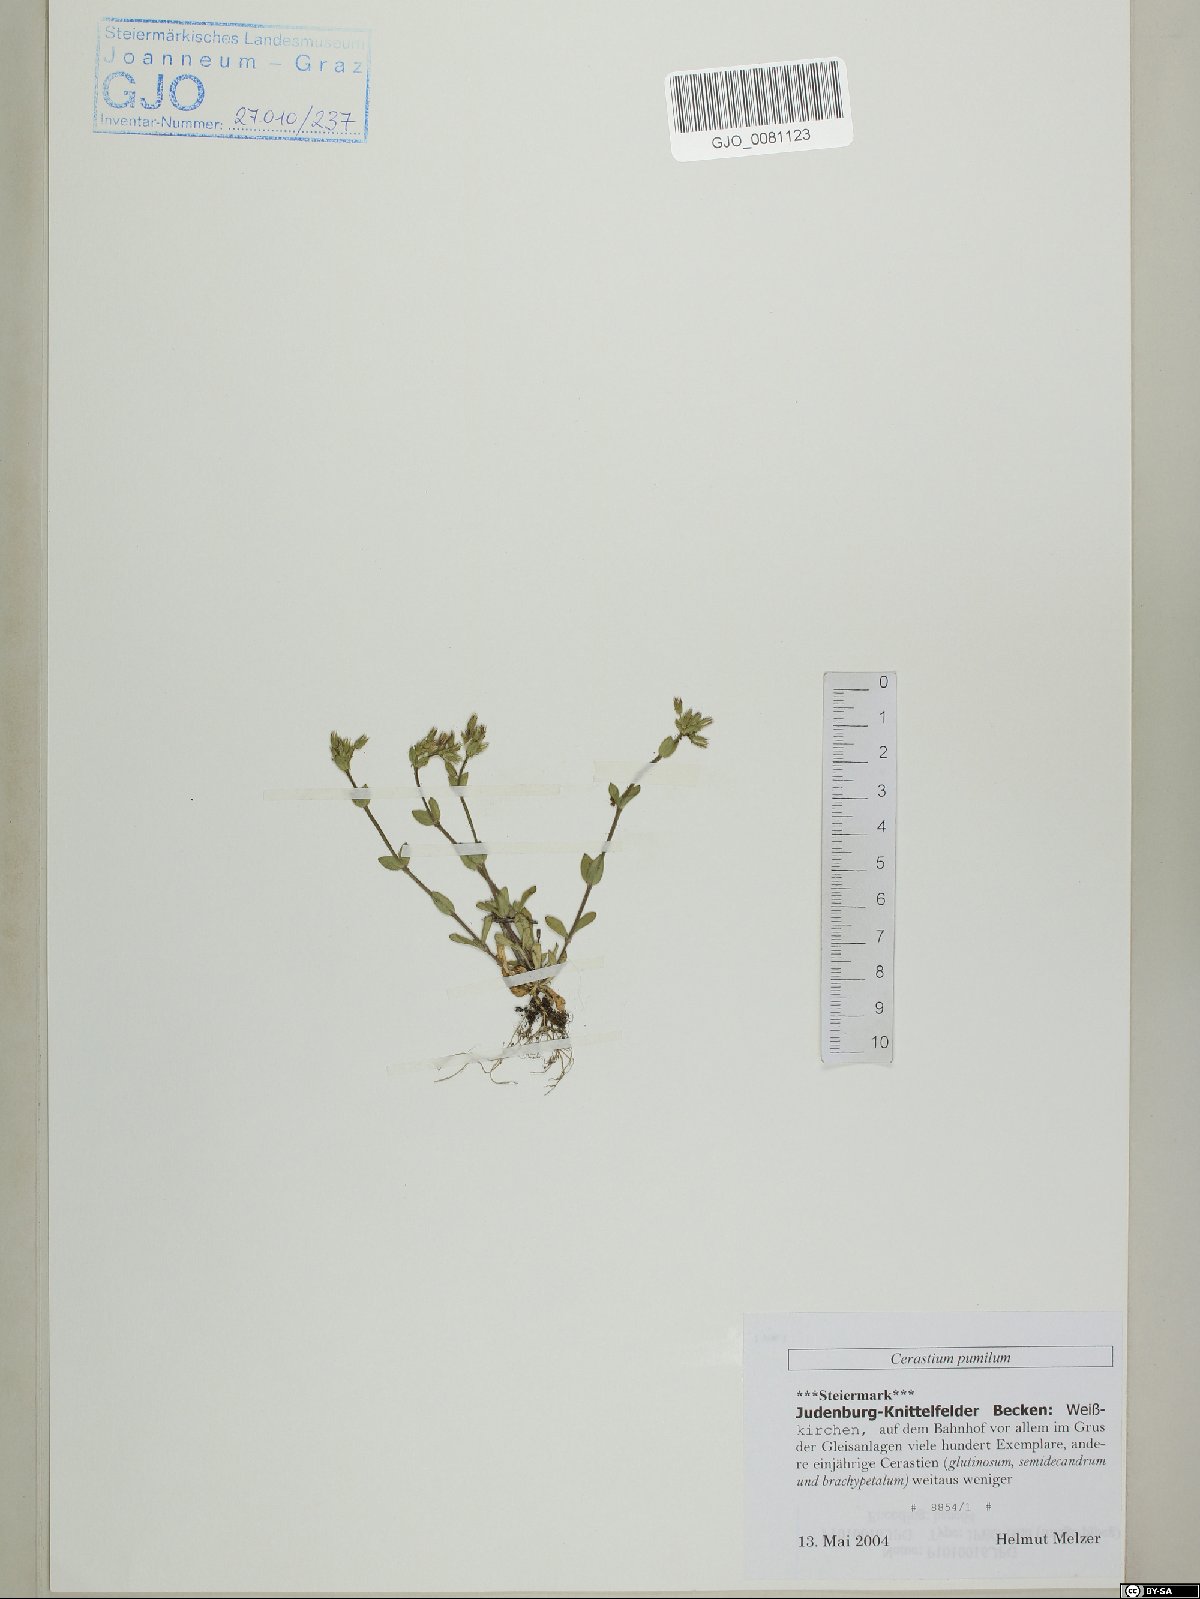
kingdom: Plantae
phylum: Tracheophyta
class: Magnoliopsida
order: Caryophyllales
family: Caryophyllaceae
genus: Cerastium
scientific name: Cerastium pumilum
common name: Dwarf mouse-ear
